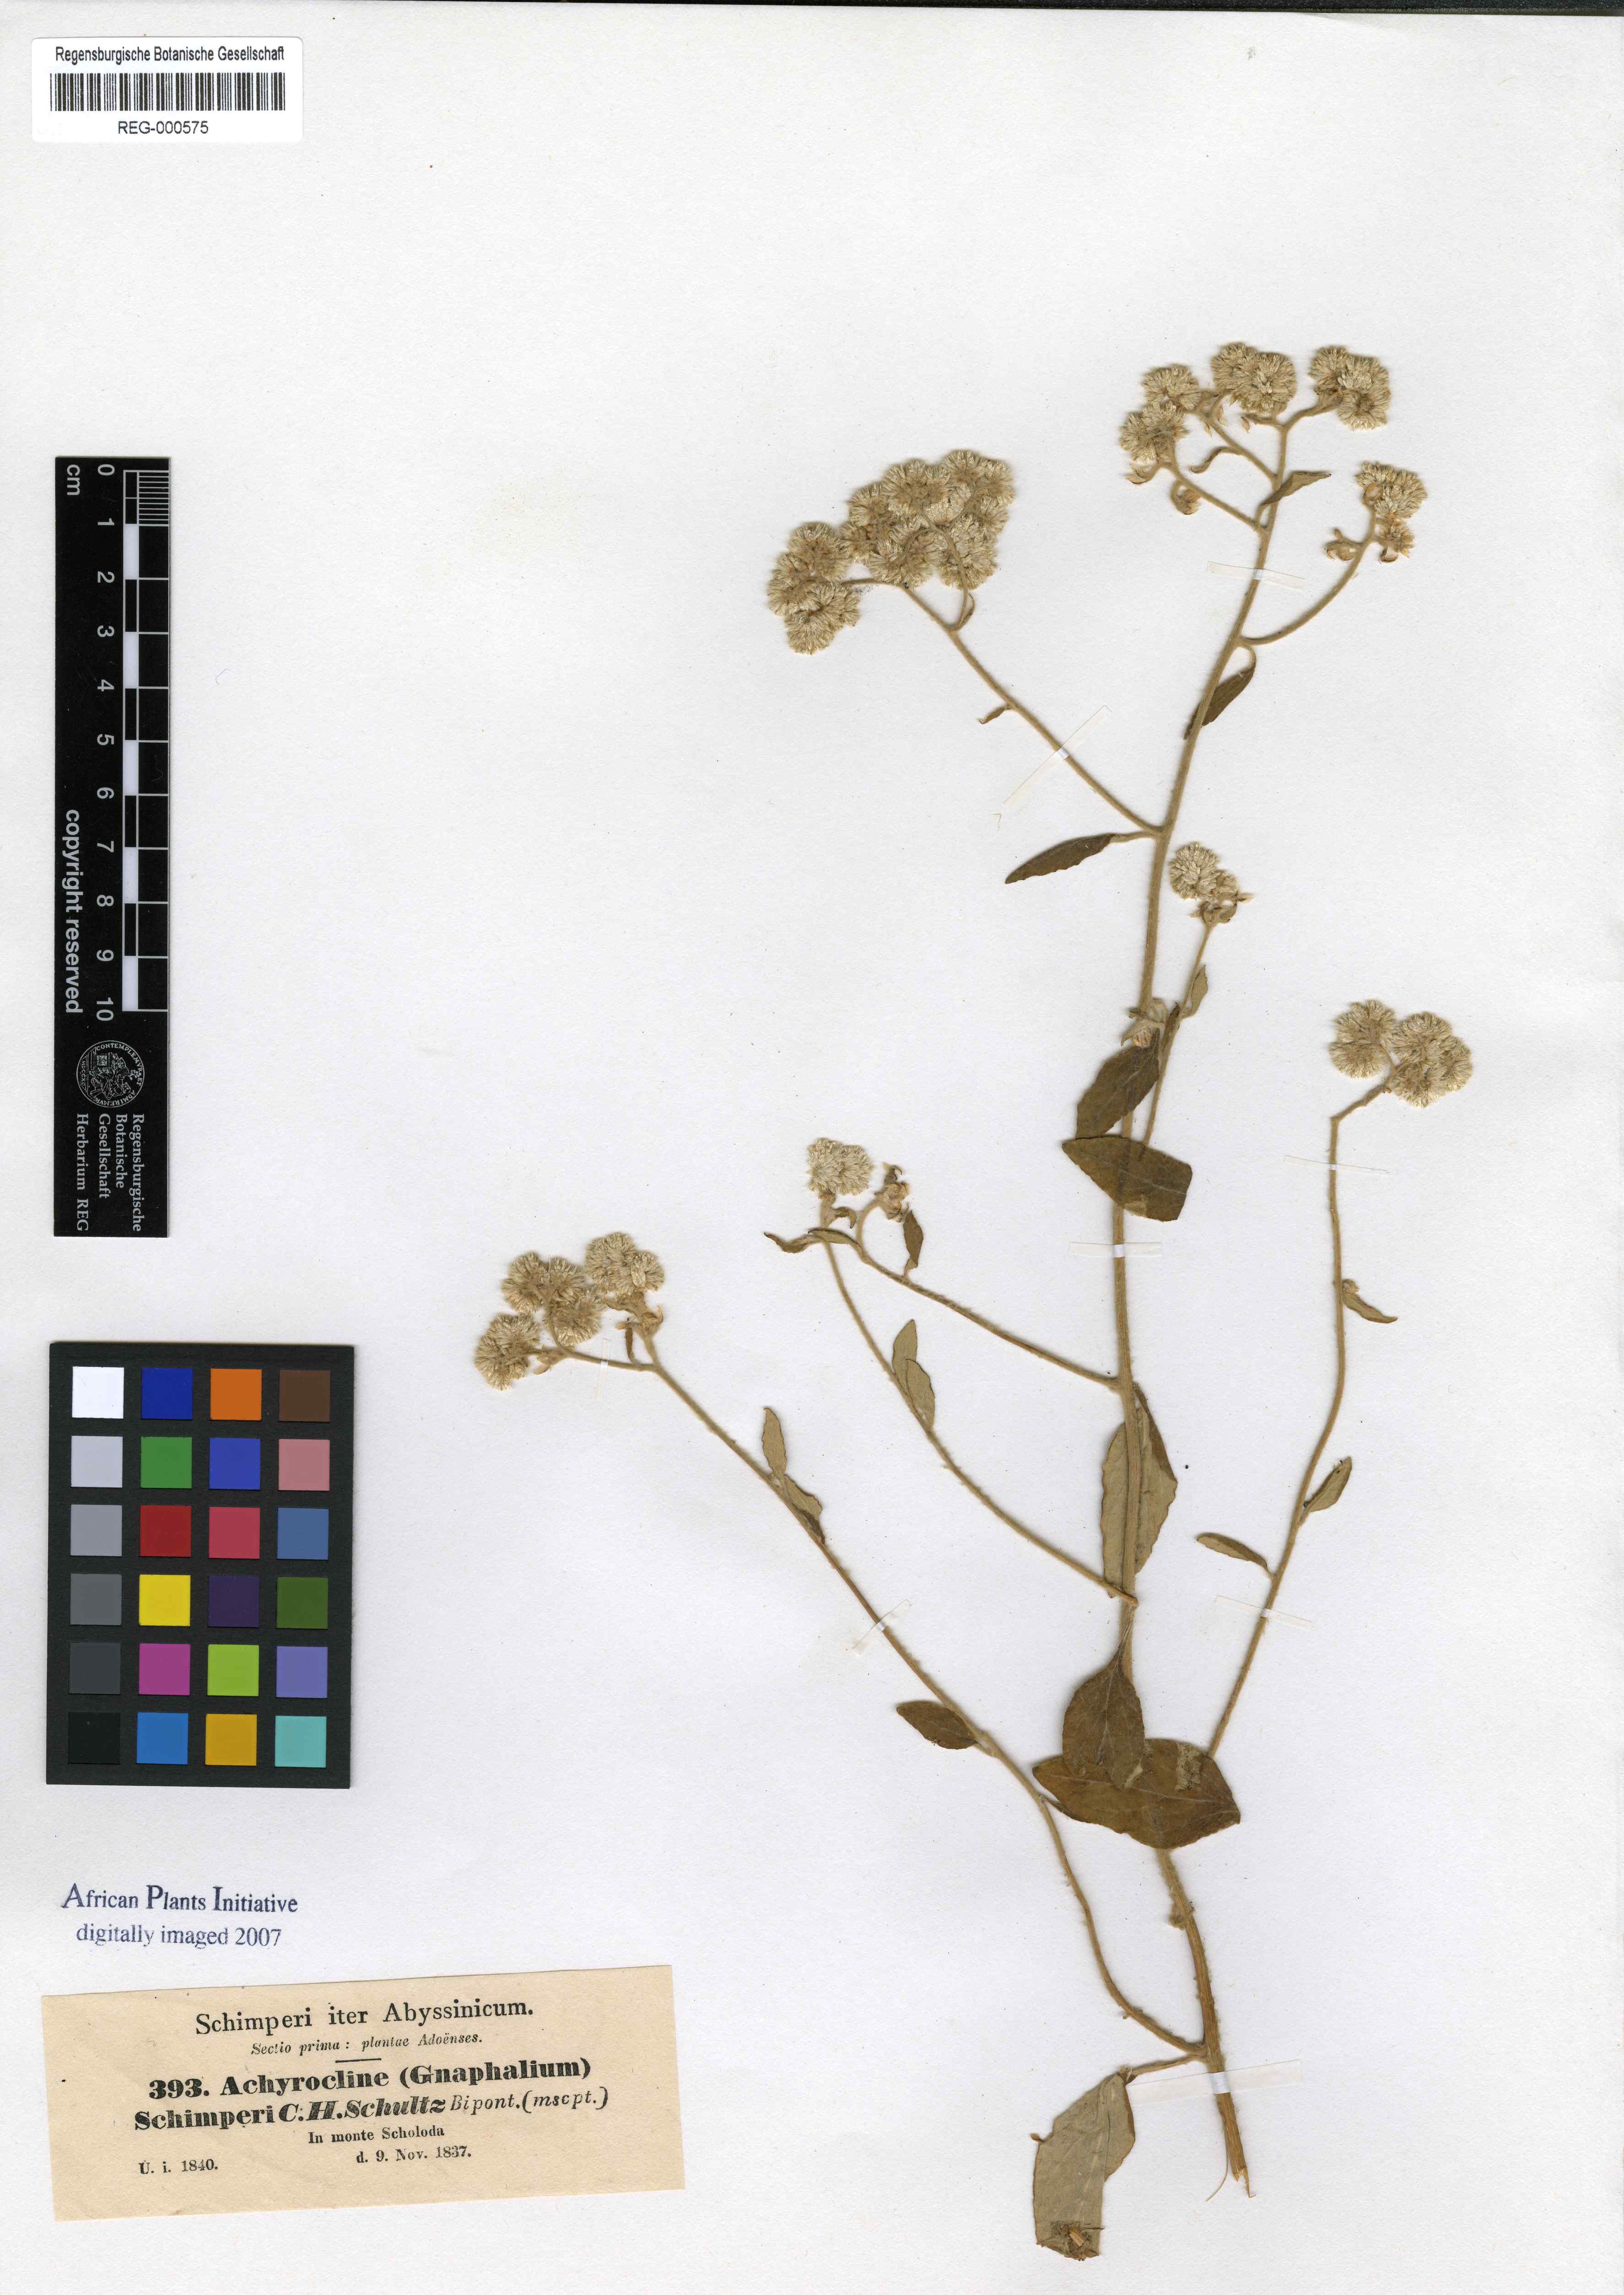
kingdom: Plantae
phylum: Tracheophyta
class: Magnoliopsida
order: Asterales
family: Asteraceae
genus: Helichrysum
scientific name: Helichrysum schimperi
